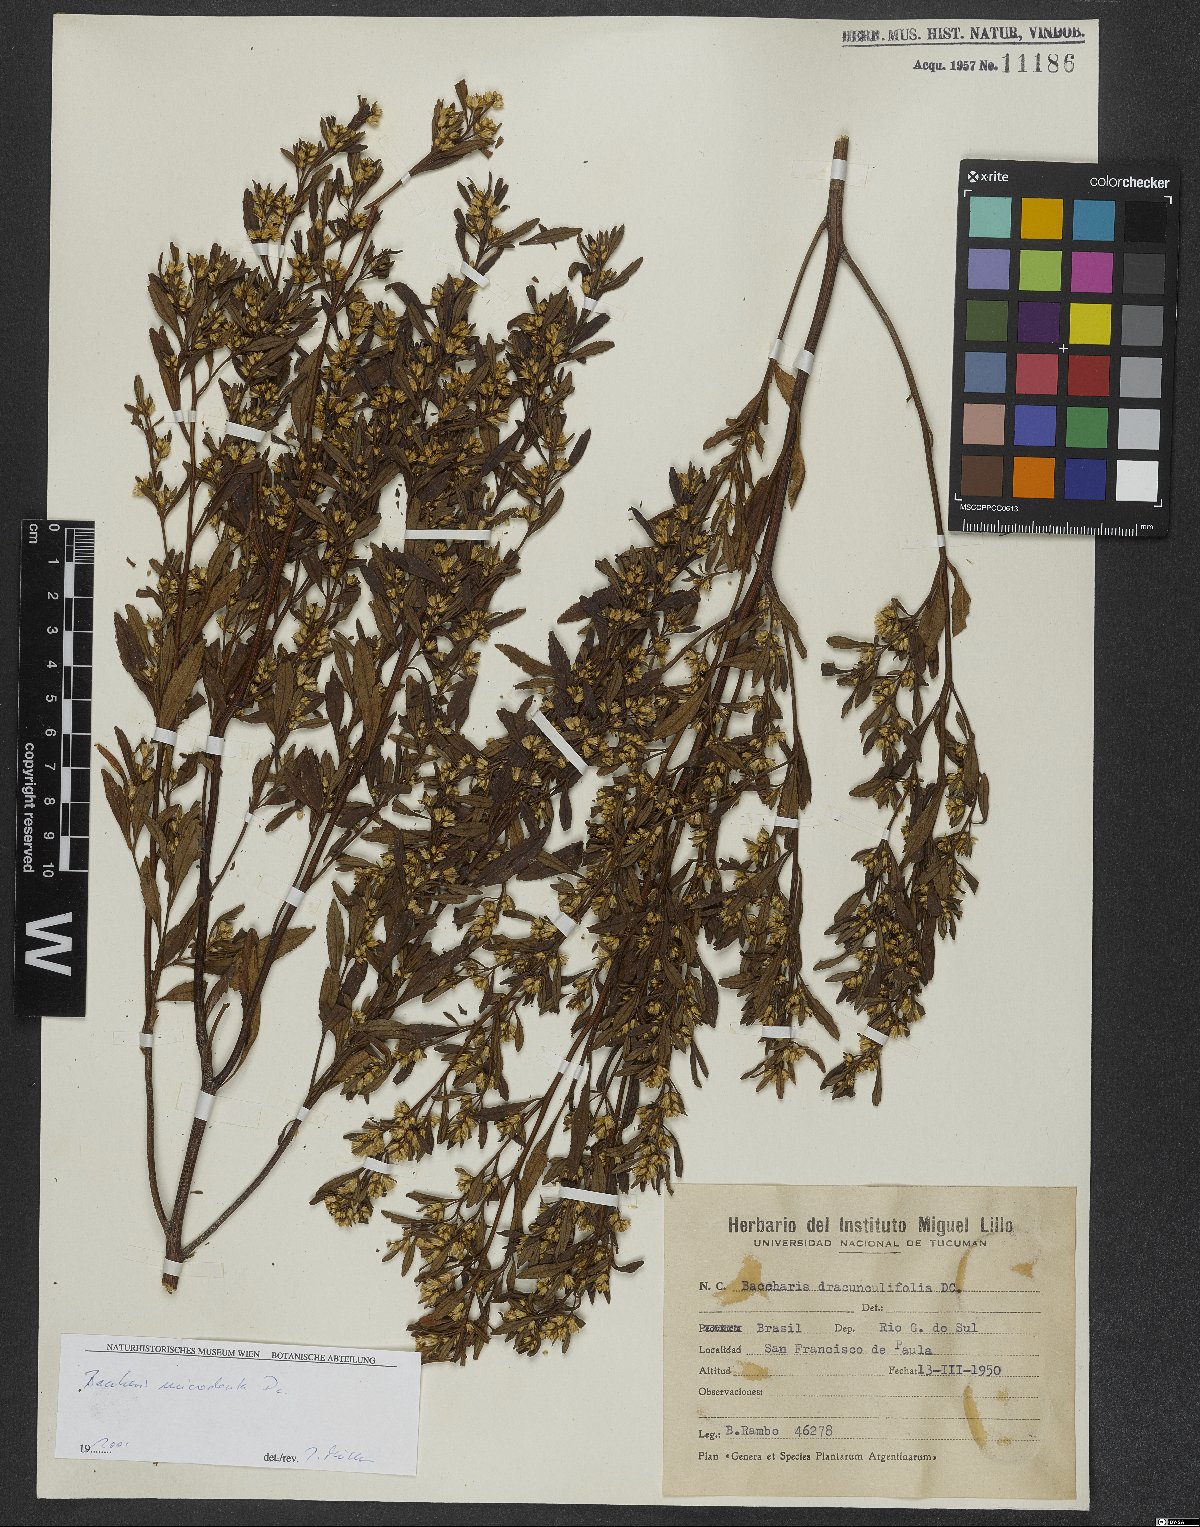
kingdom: Plantae
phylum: Tracheophyta
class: Magnoliopsida
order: Asterales
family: Asteraceae
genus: Baccharis
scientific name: Baccharis microdonta
